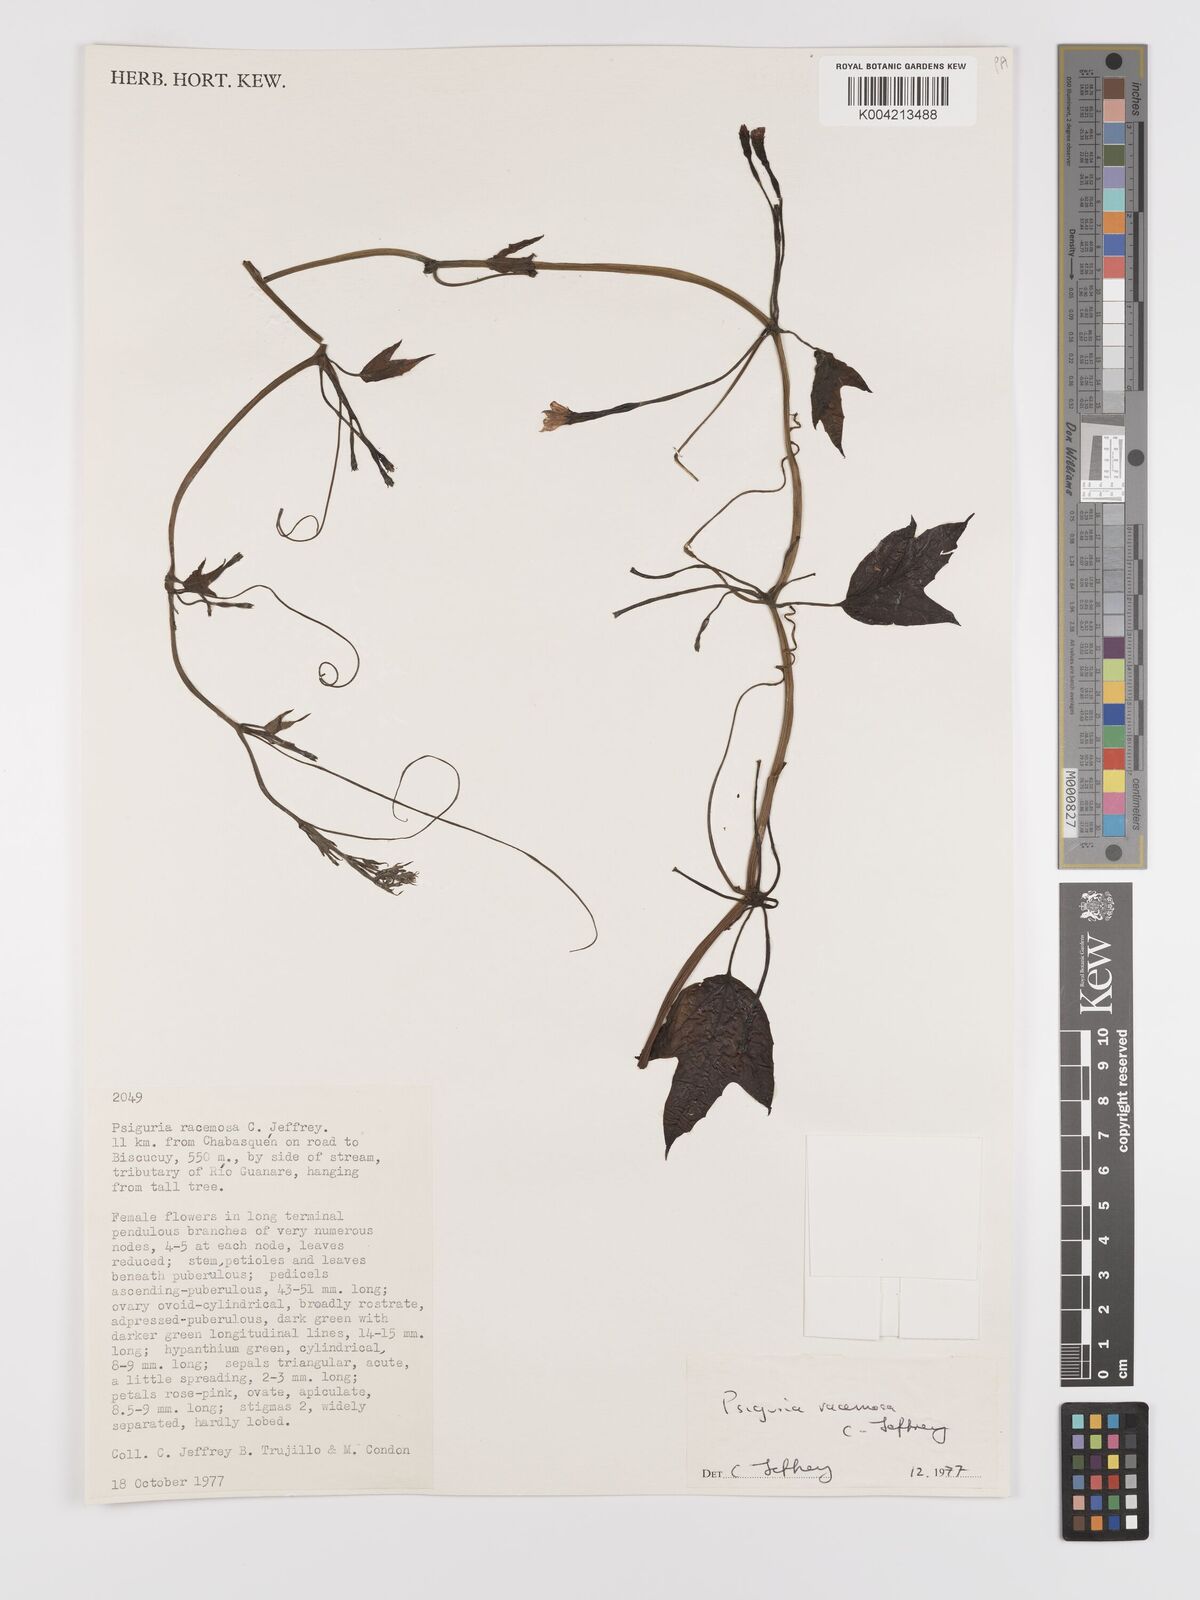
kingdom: Plantae
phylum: Tracheophyta
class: Magnoliopsida
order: Cucurbitales
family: Cucurbitaceae
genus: Psiguria
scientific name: Psiguria racemosa
